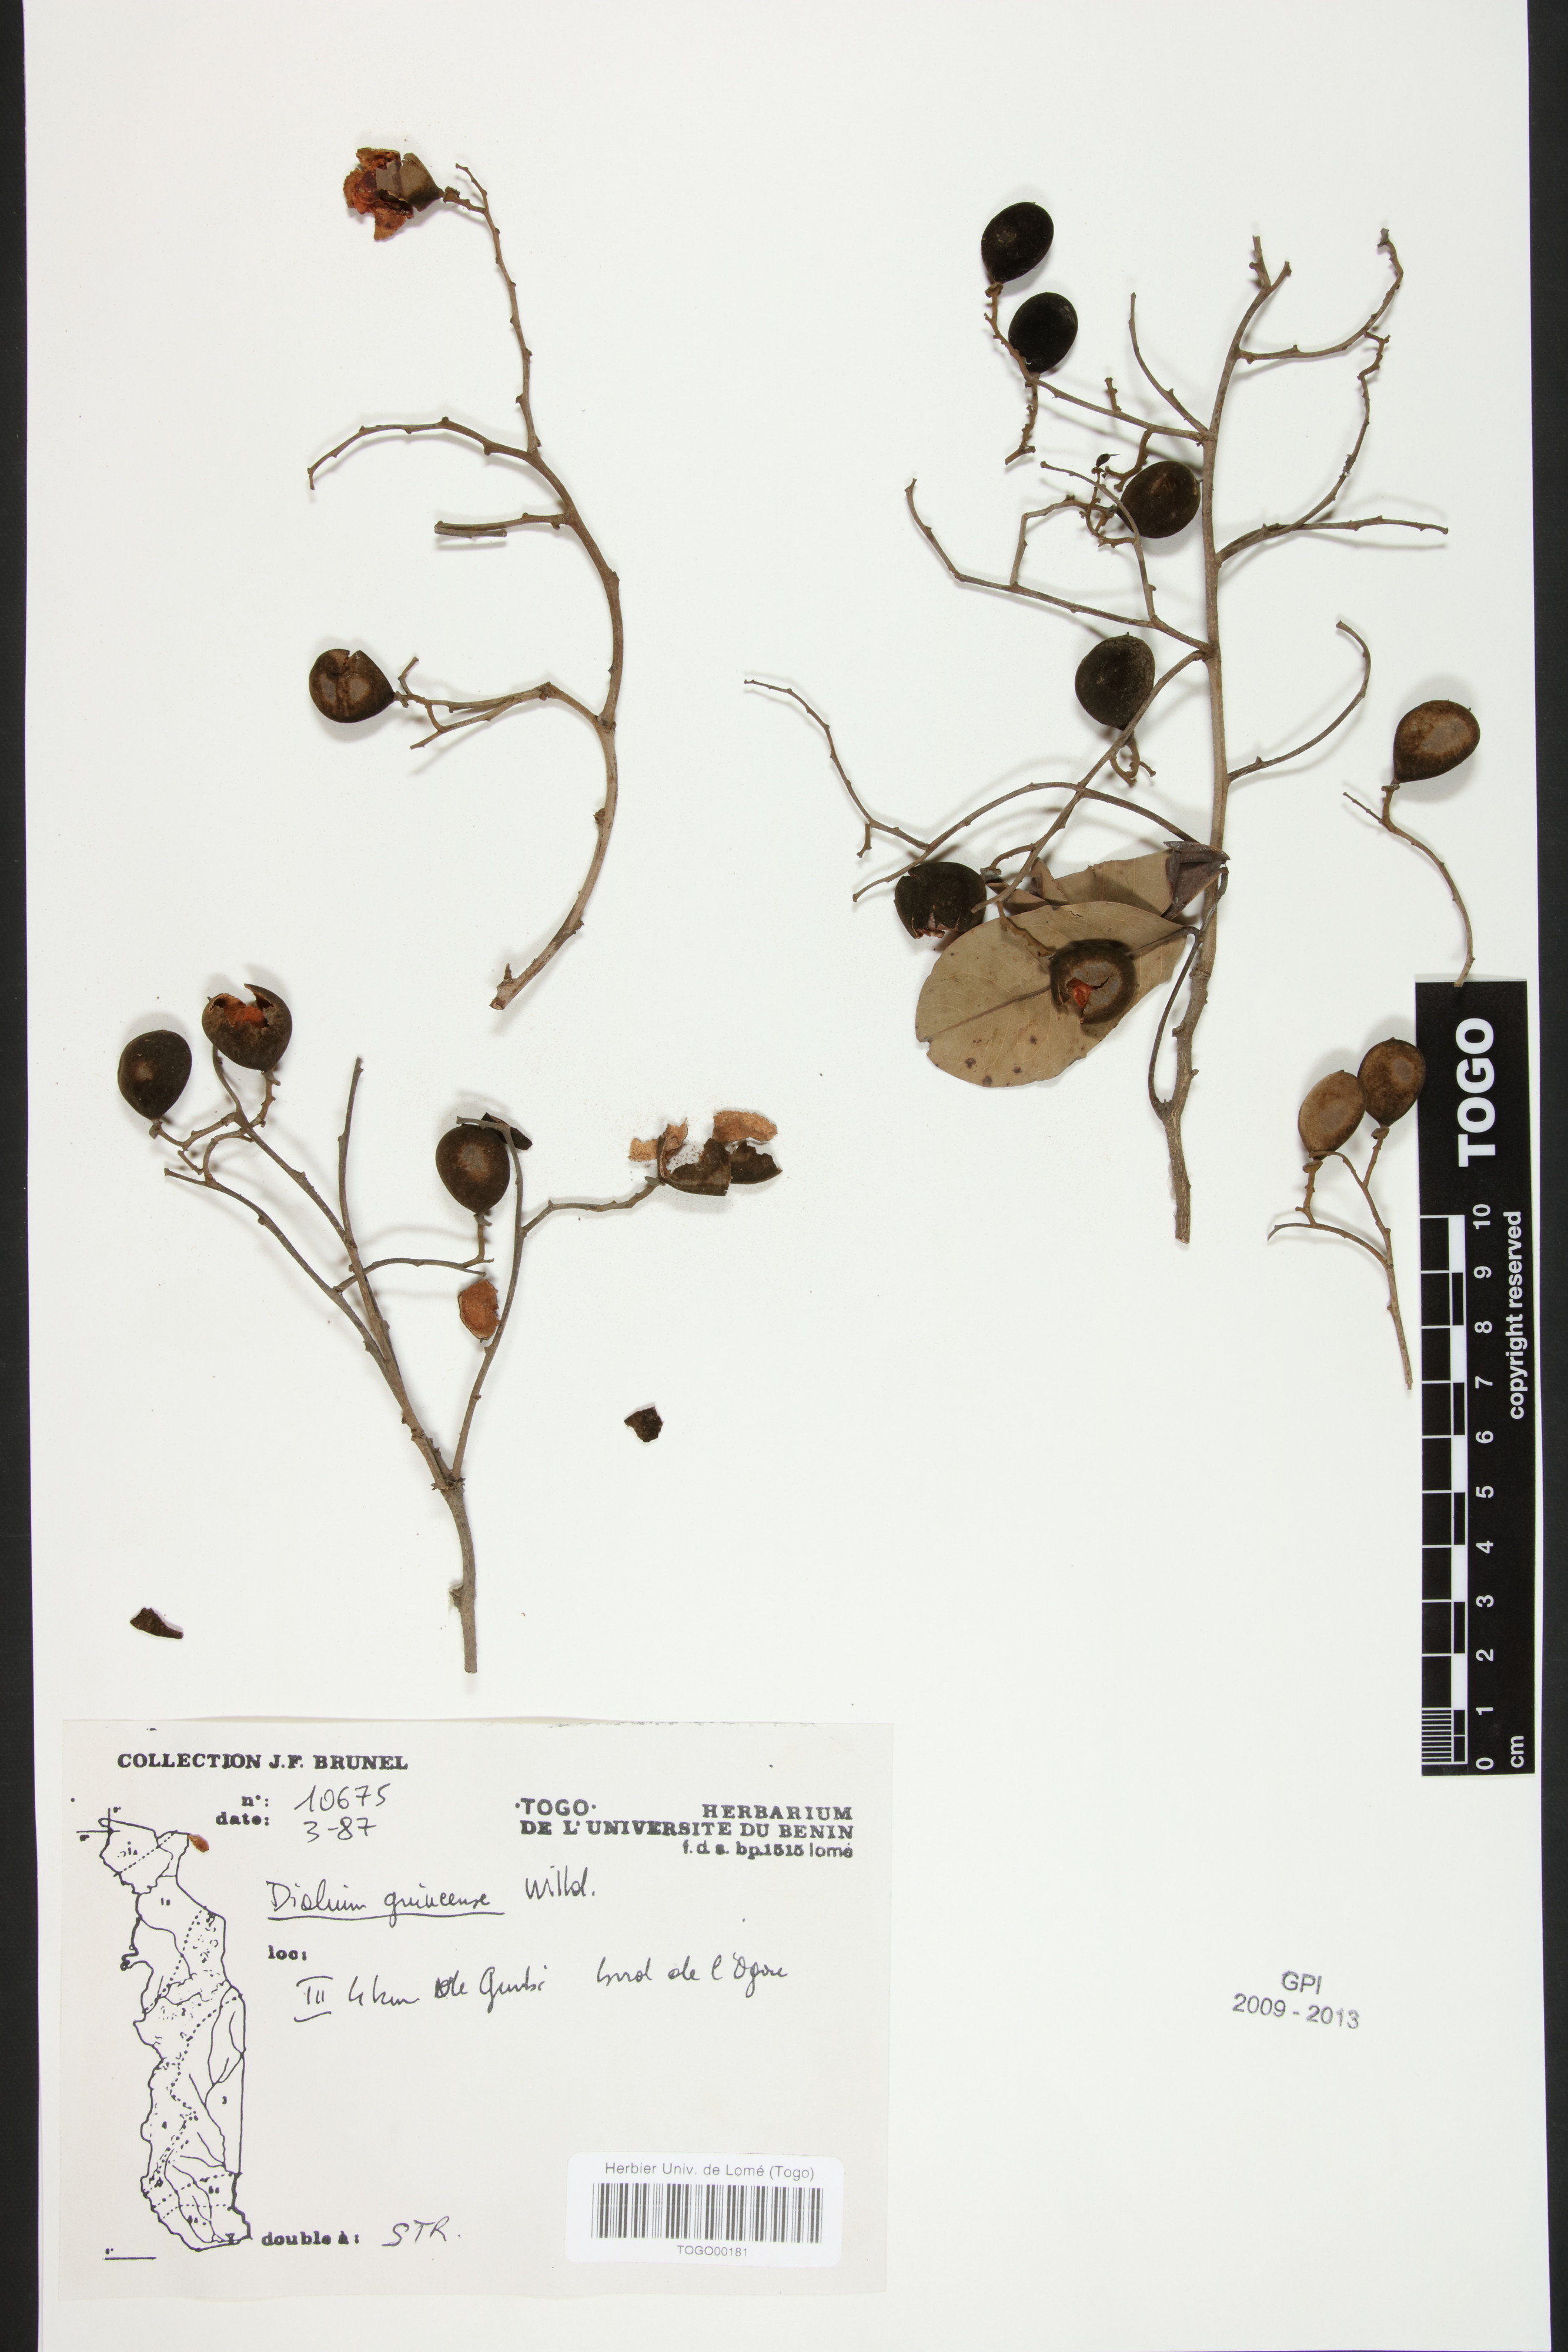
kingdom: Plantae
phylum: Tracheophyta
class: Magnoliopsida
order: Fabales
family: Fabaceae
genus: Dialium
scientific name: Dialium guineense
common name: Sierra leone-tamarind
